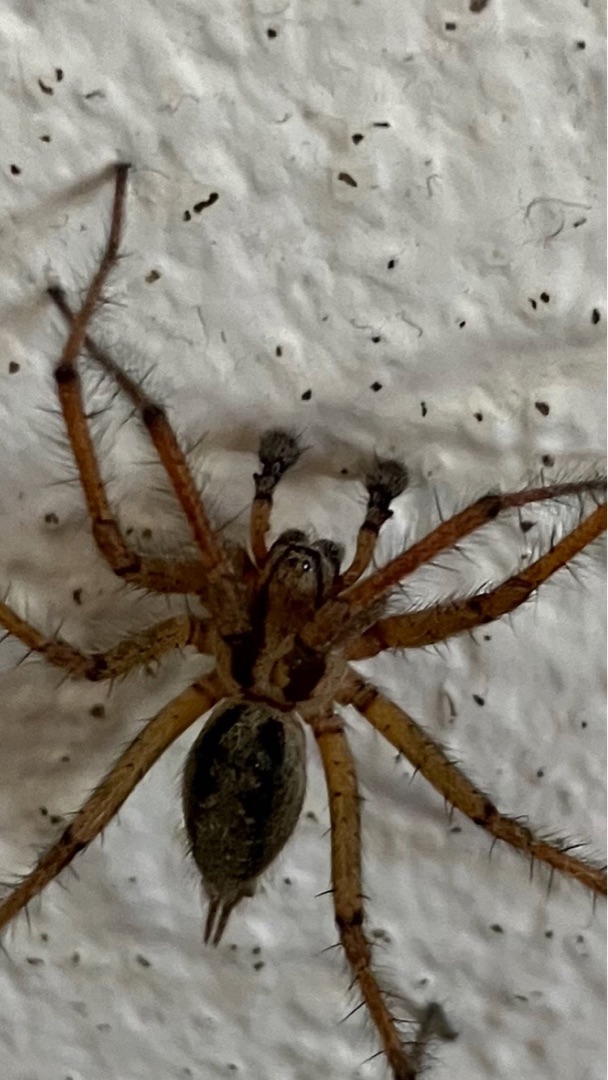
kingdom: Animalia
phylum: Arthropoda
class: Arachnida
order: Araneae
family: Agelenidae
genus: Agelena
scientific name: Agelena labyrinthica
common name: Labyrintedderkop
